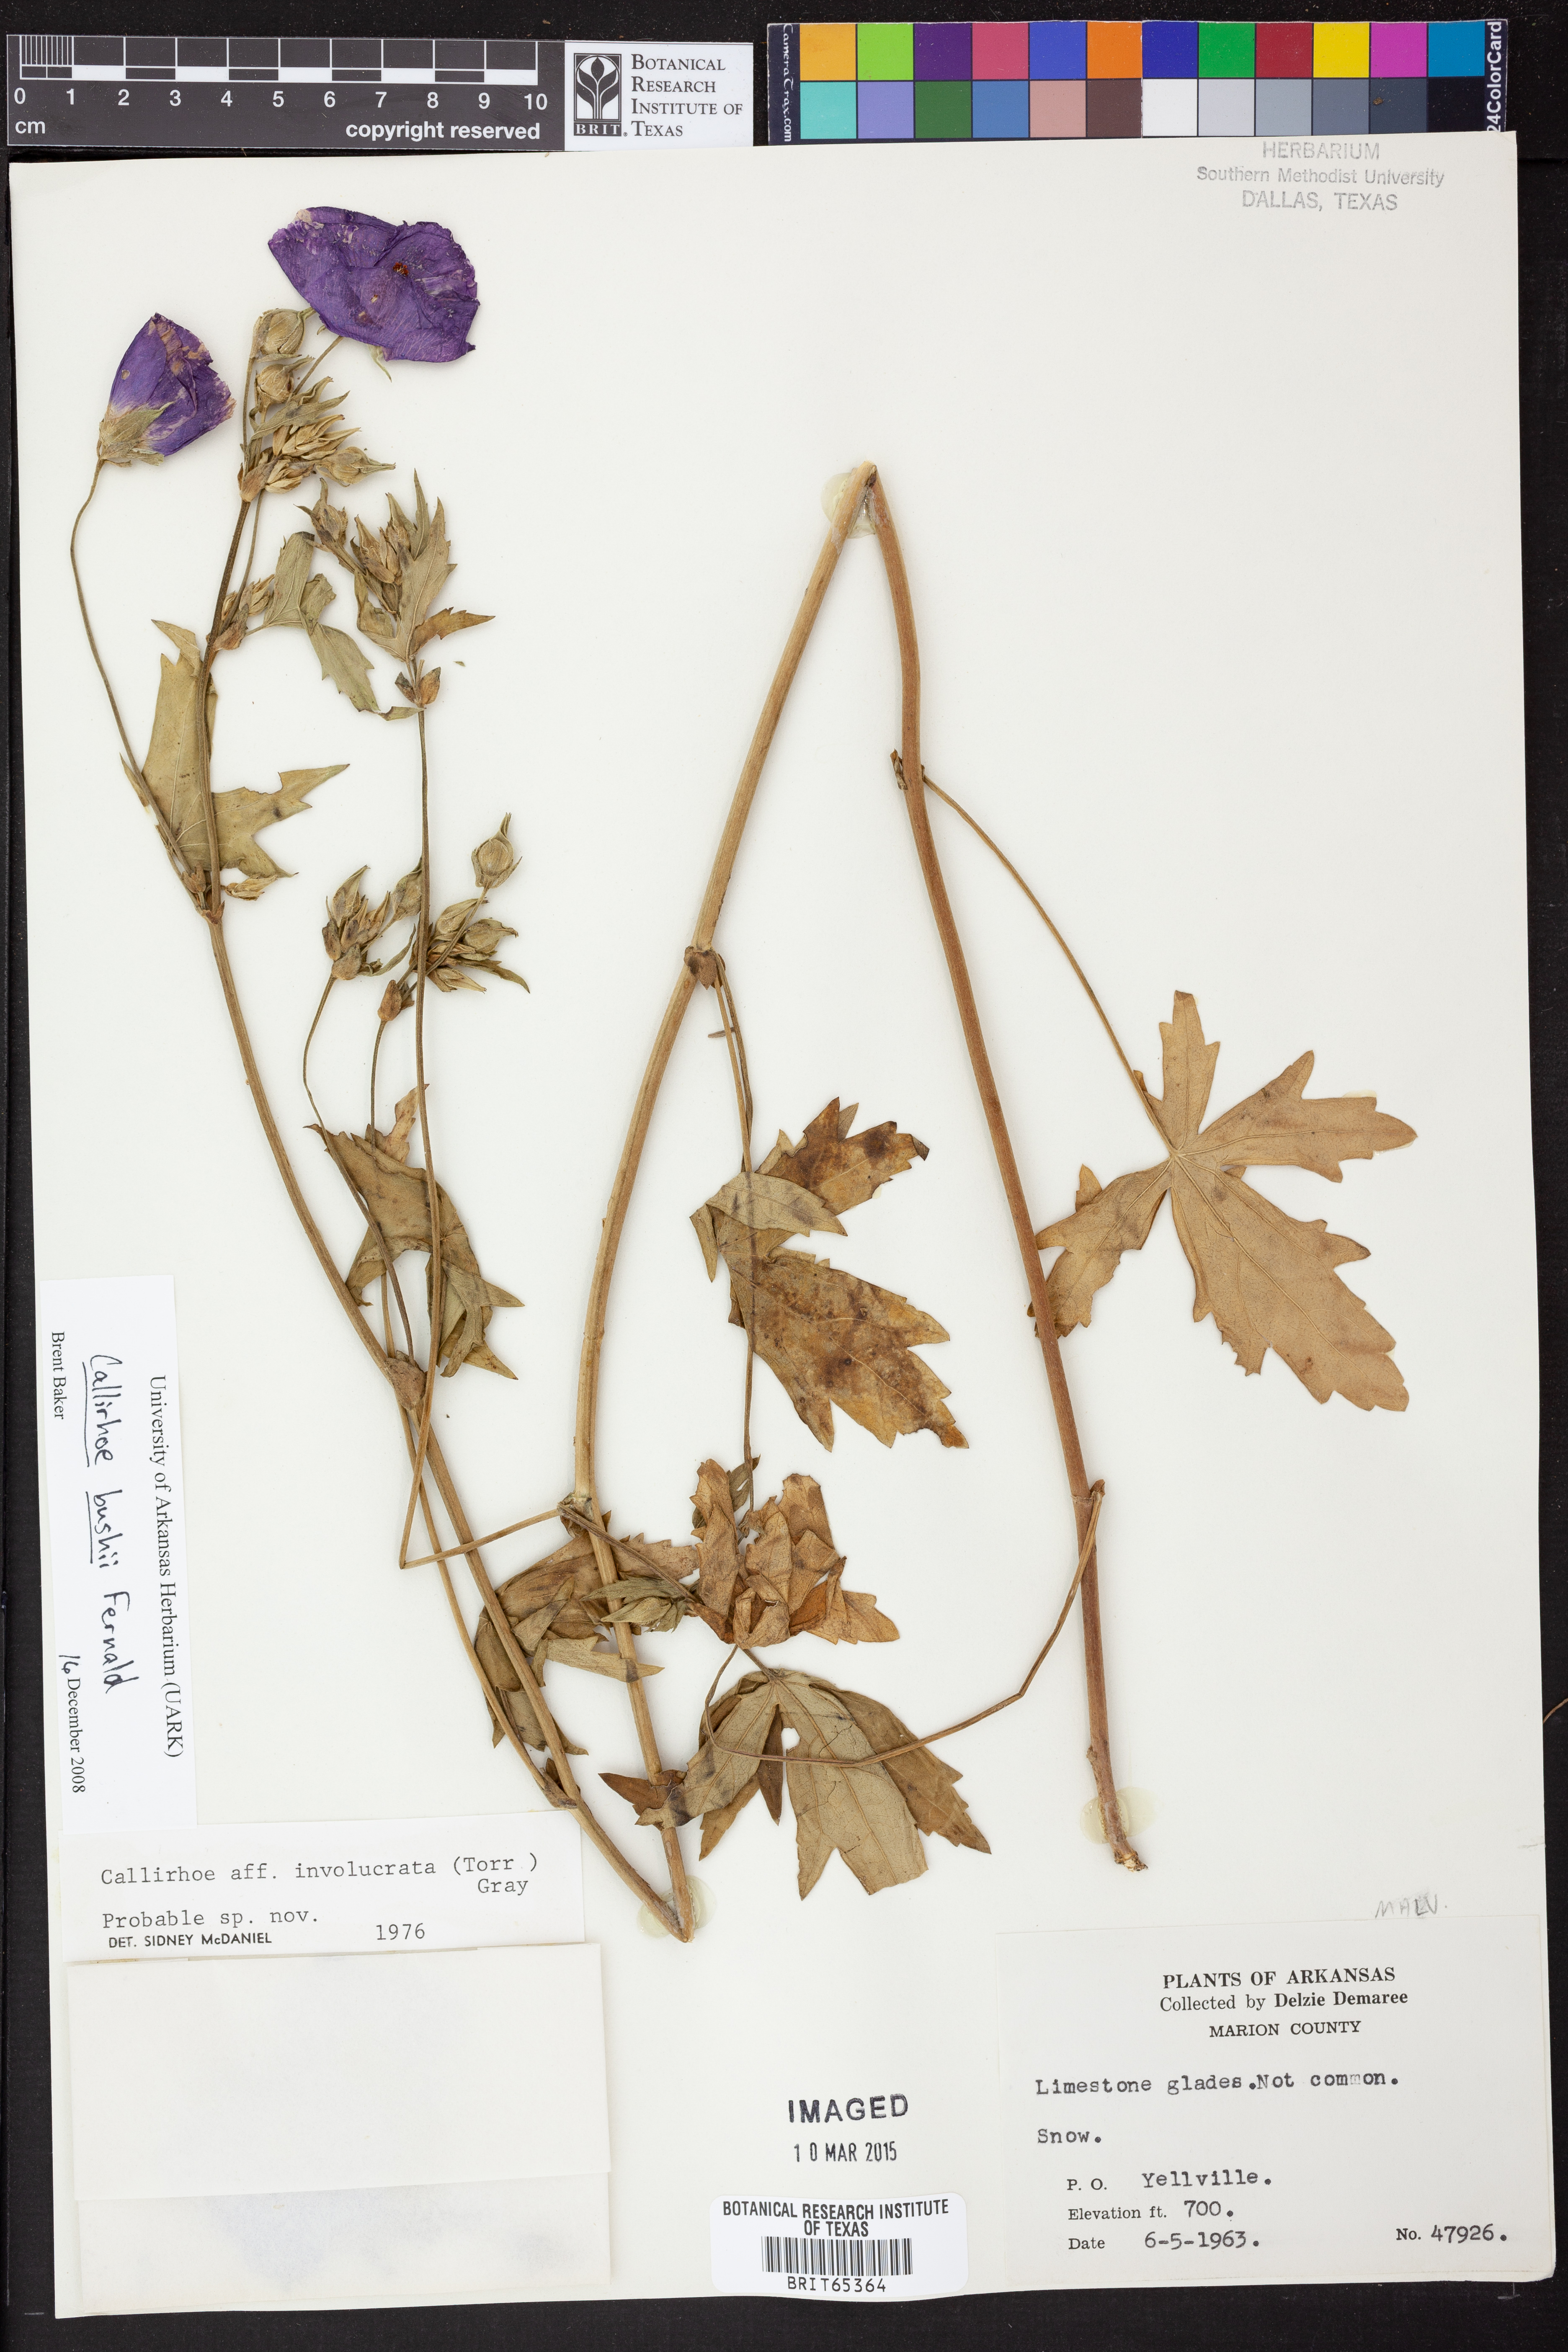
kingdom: Plantae
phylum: Tracheophyta
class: Magnoliopsida
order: Malvales
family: Malvaceae
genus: Callirhoe
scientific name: Callirhoe alcaeoides
